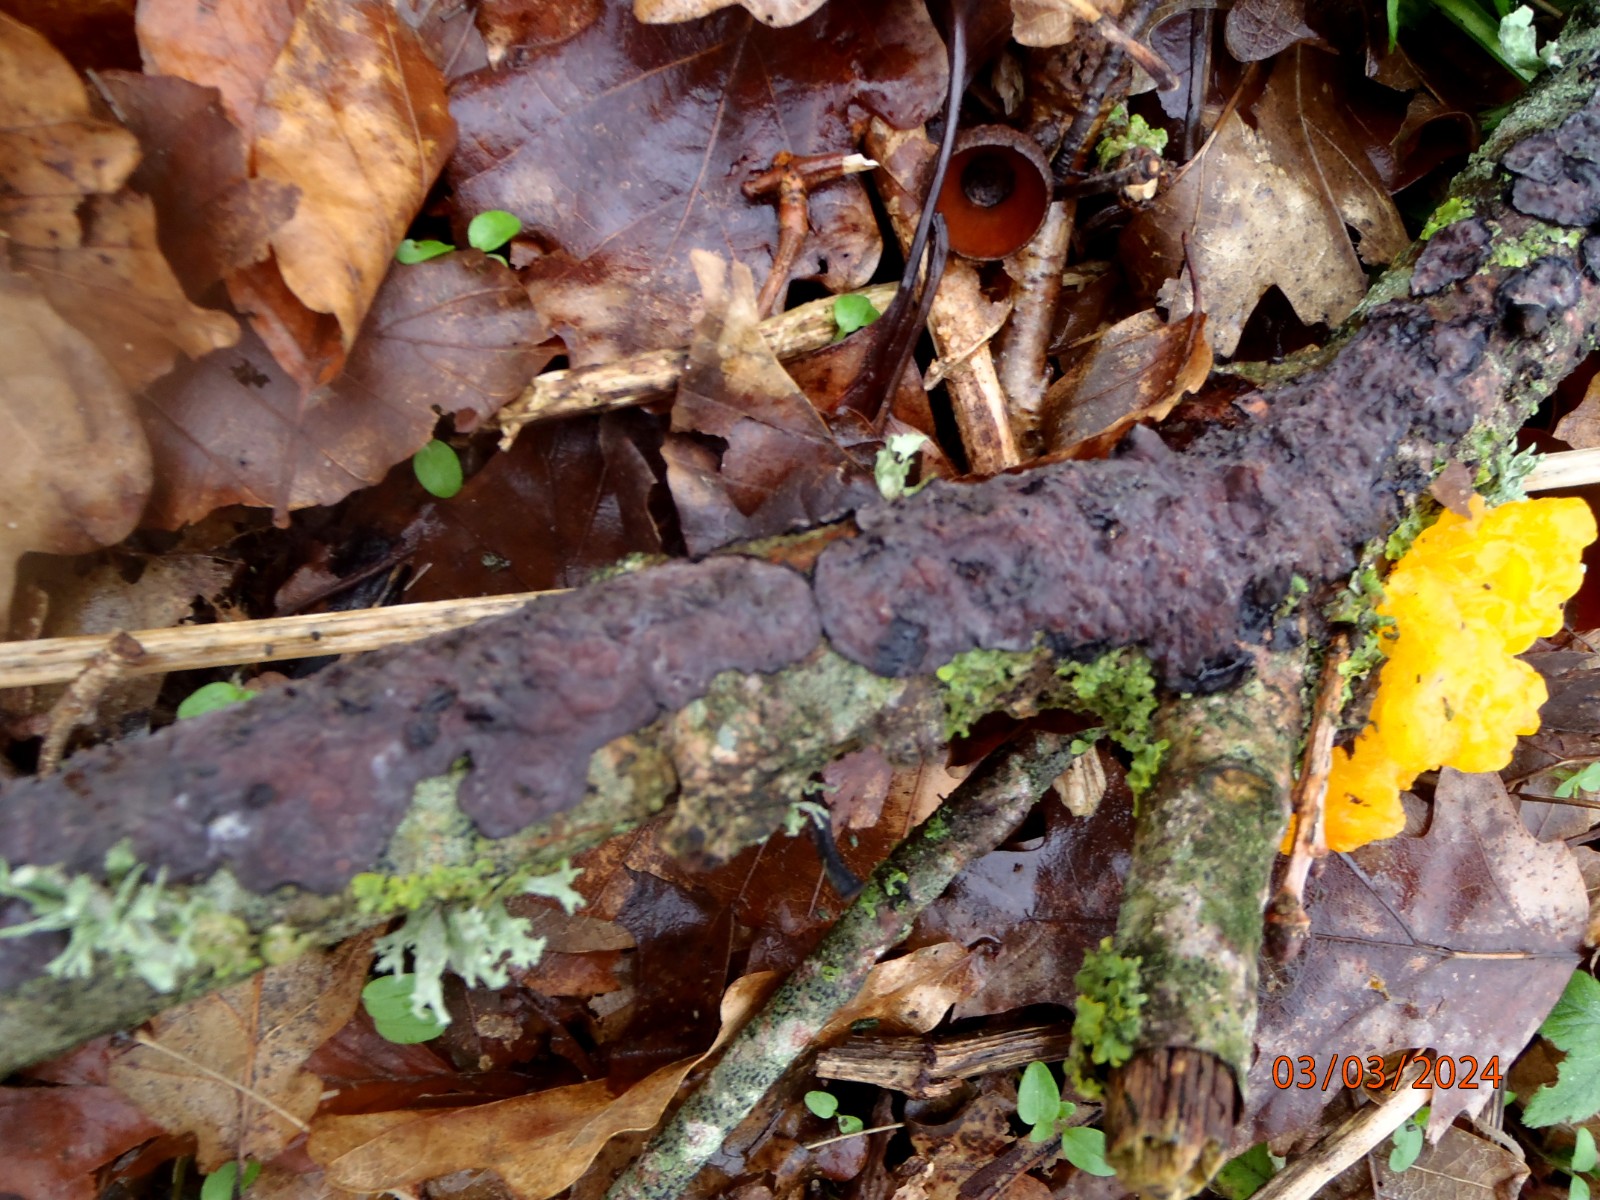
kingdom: Fungi
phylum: Basidiomycota
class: Agaricomycetes
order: Russulales
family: Peniophoraceae
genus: Peniophora
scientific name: Peniophora quercina
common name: ege-voksskind
